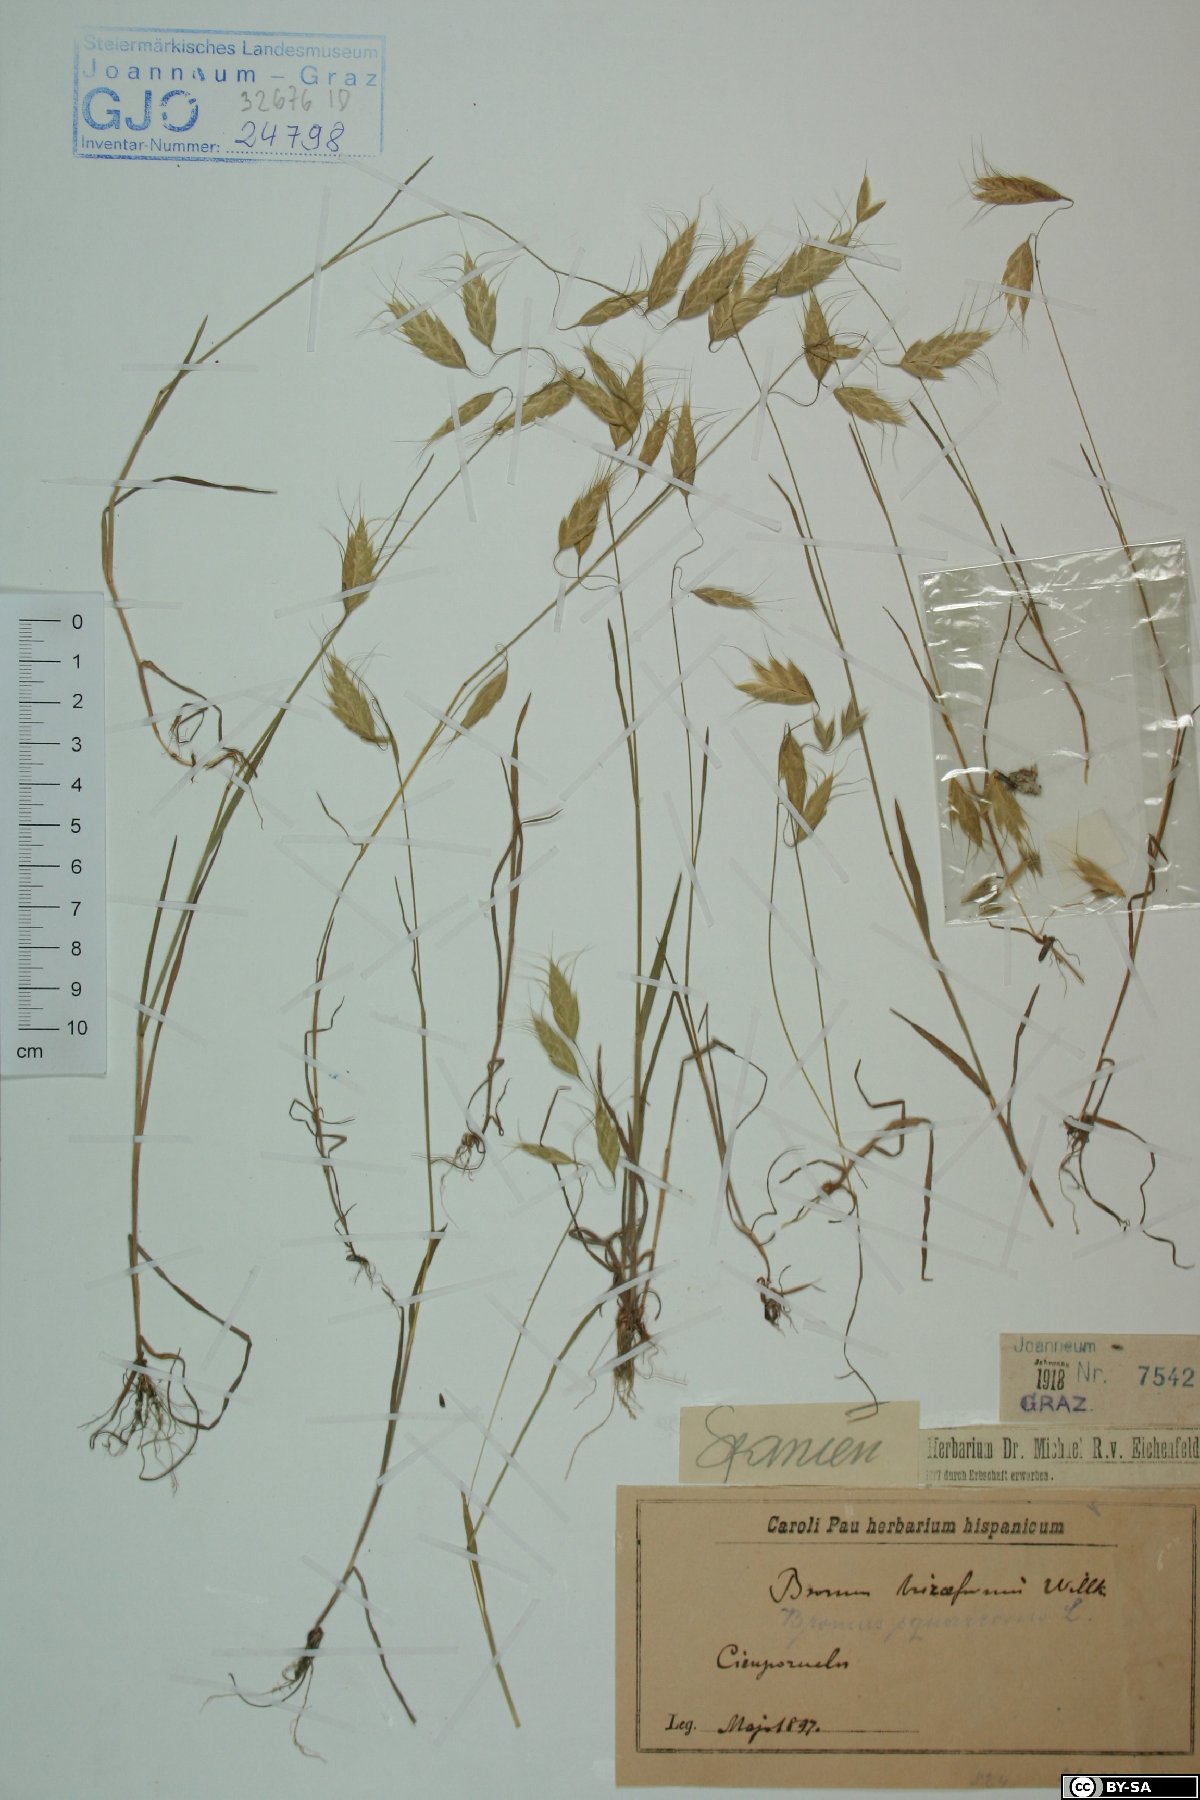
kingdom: Plantae
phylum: Tracheophyta
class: Liliopsida
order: Poales
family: Poaceae
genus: Bromus
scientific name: Bromus briziformis
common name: Rattlesnake brome
